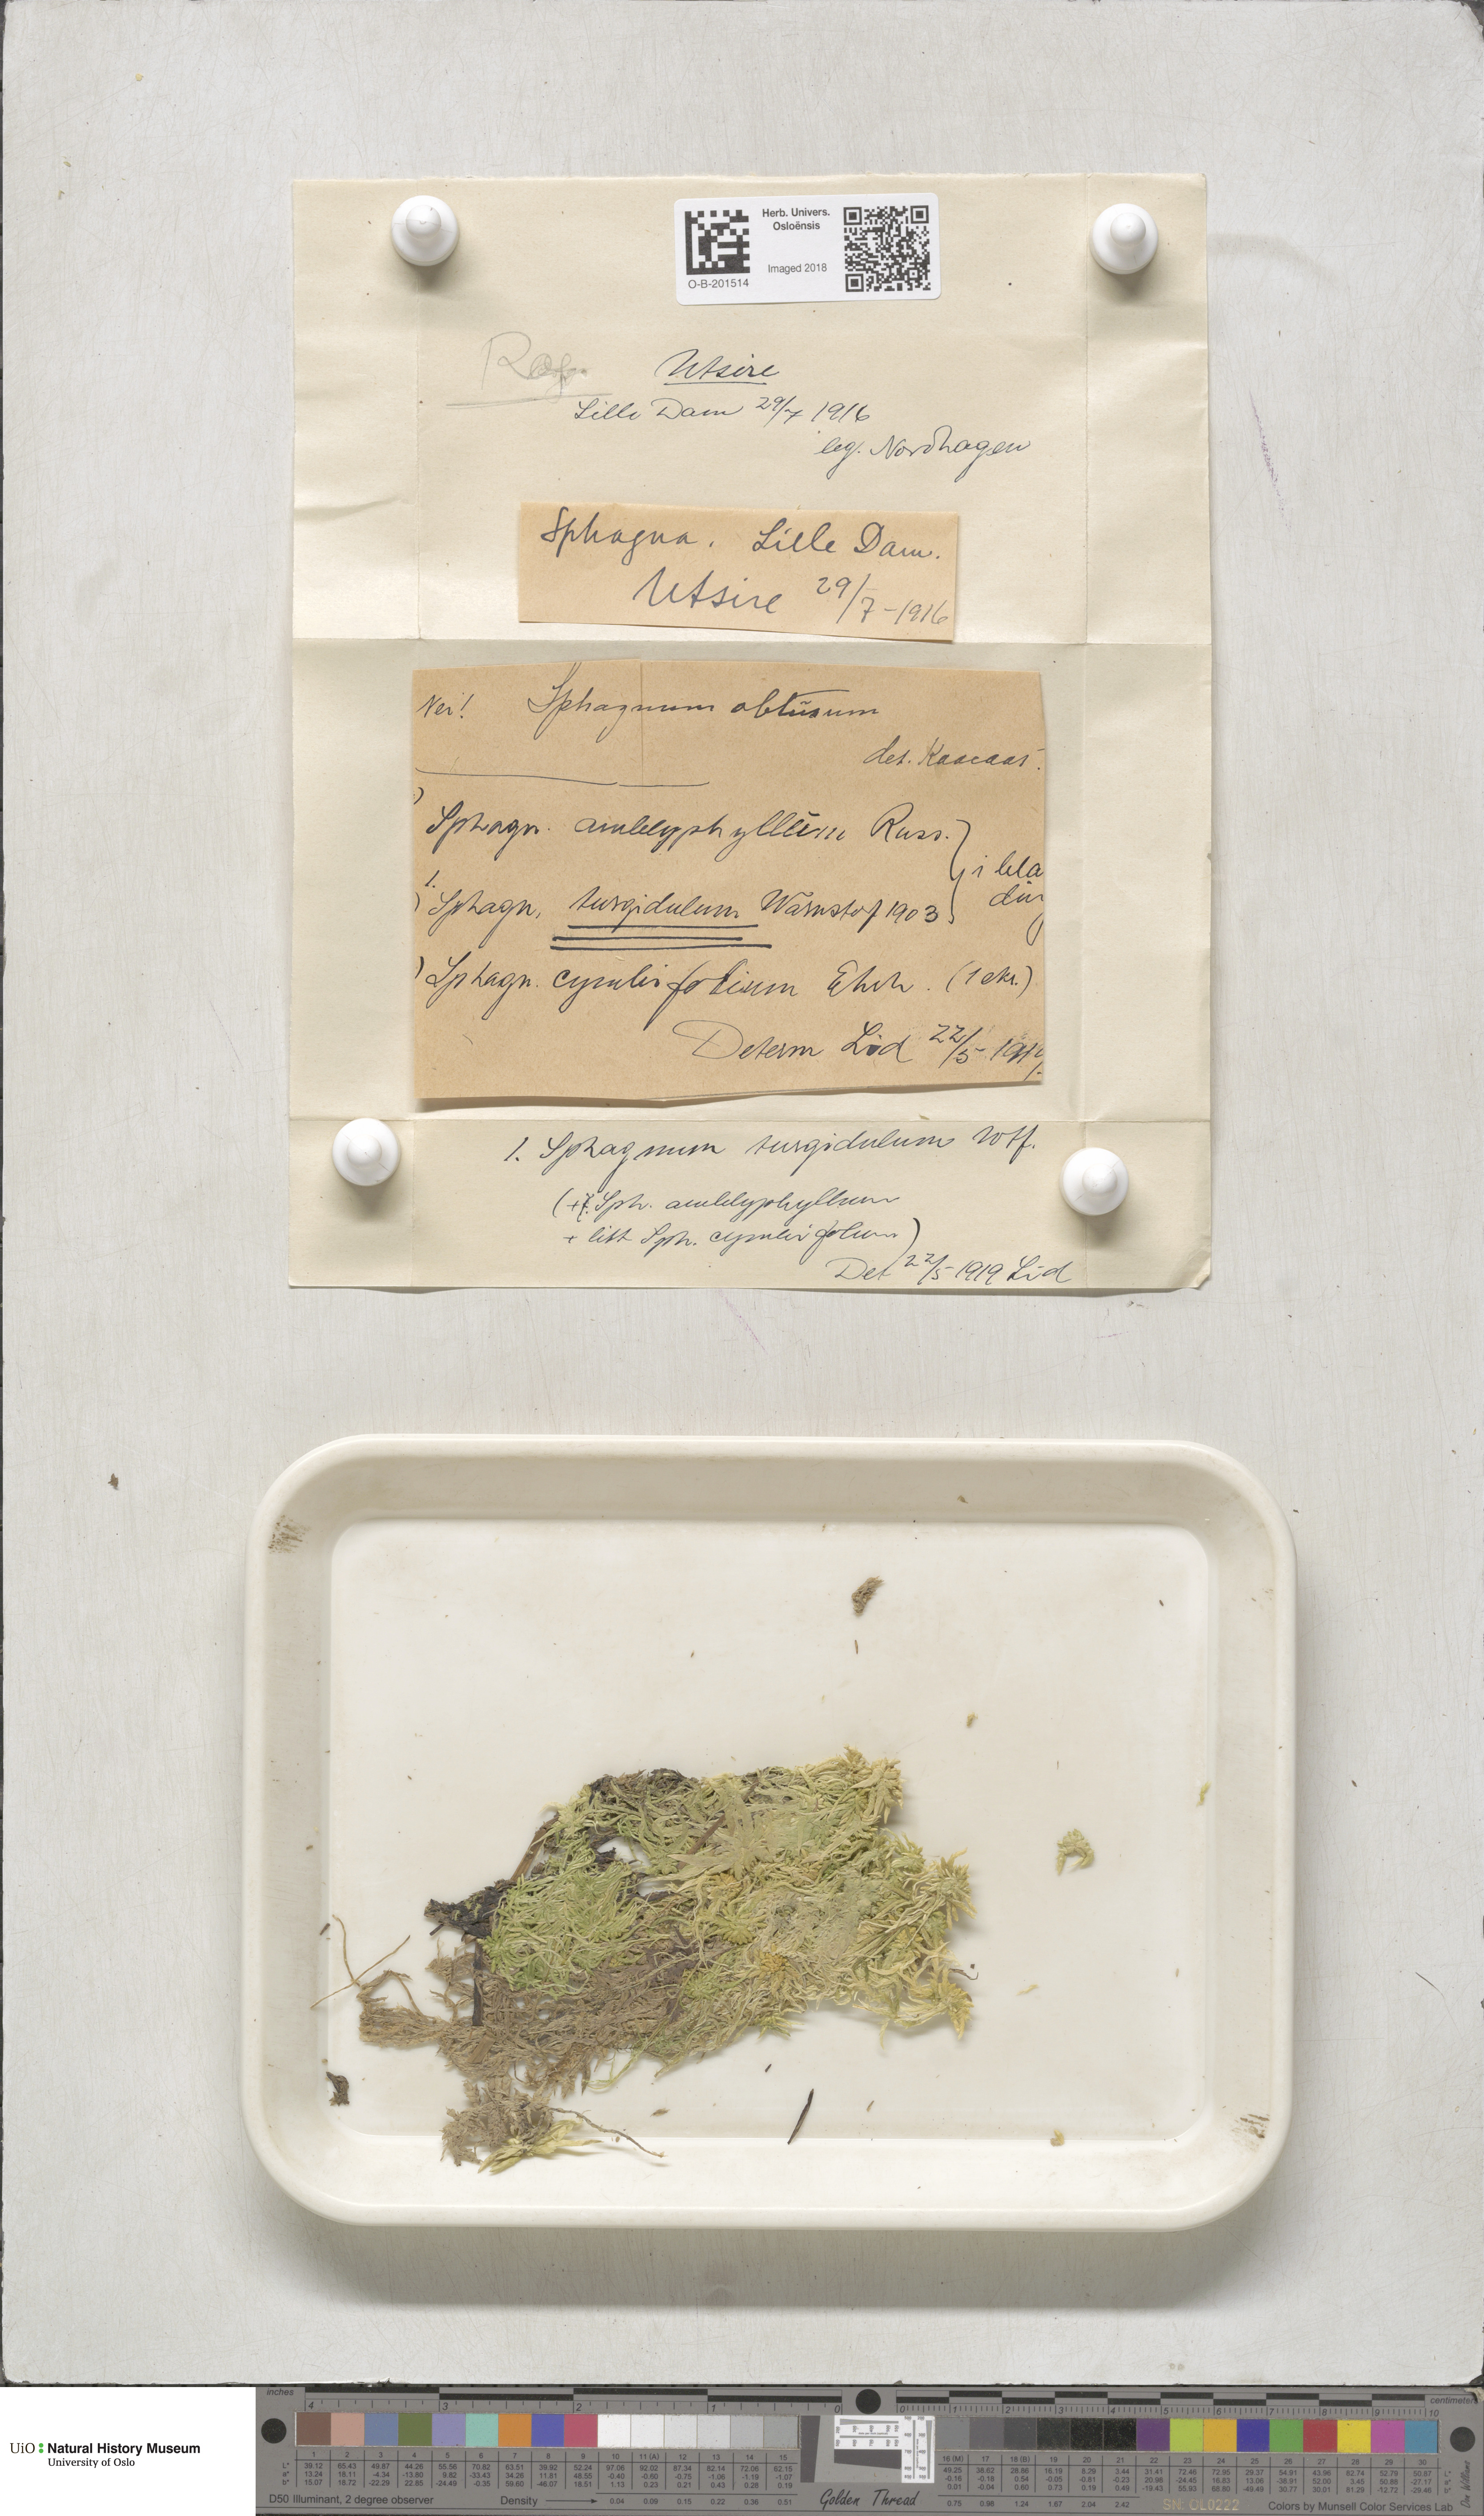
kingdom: Plantae
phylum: Bryophyta
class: Sphagnopsida
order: Sphagnales
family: Sphagnaceae
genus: Sphagnum
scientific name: Sphagnum inundatum
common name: Lesser cow-horn bog-moss
